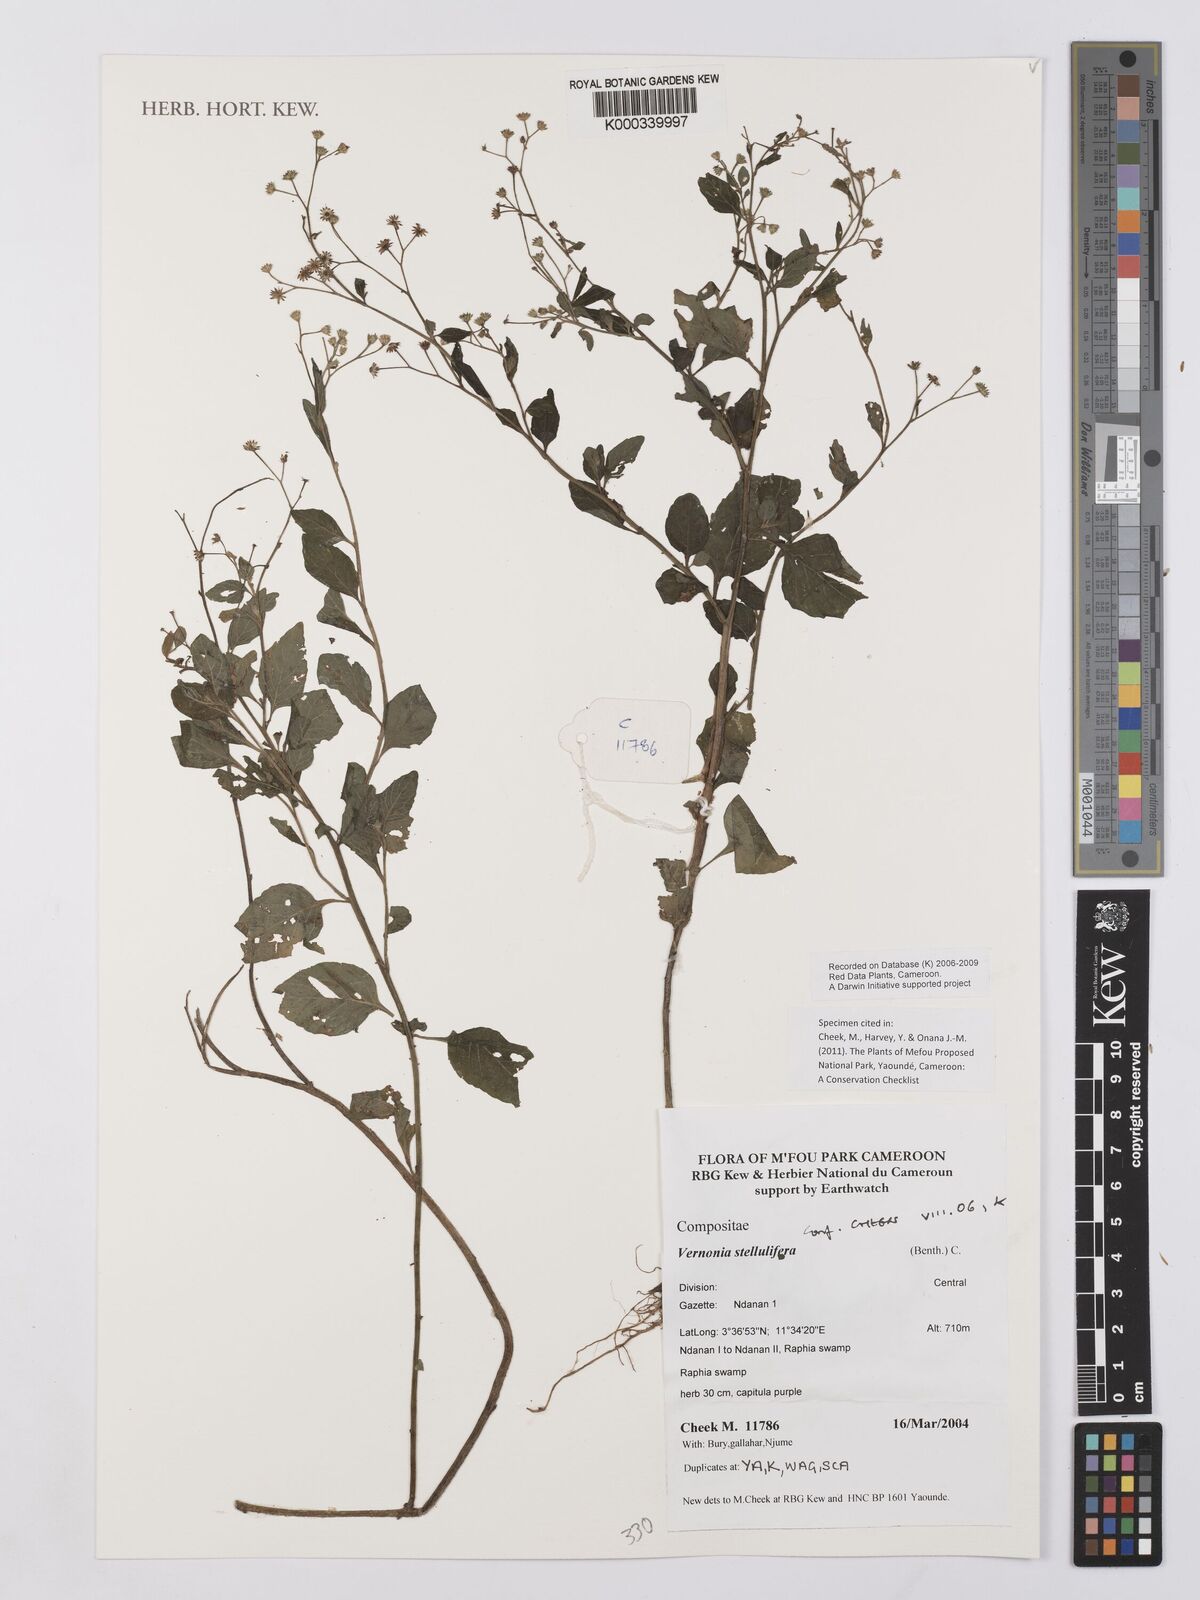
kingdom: Plantae
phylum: Tracheophyta
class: Magnoliopsida
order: Asterales
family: Asteraceae
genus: Cyanthillium
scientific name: Cyanthillium stelluliferum
